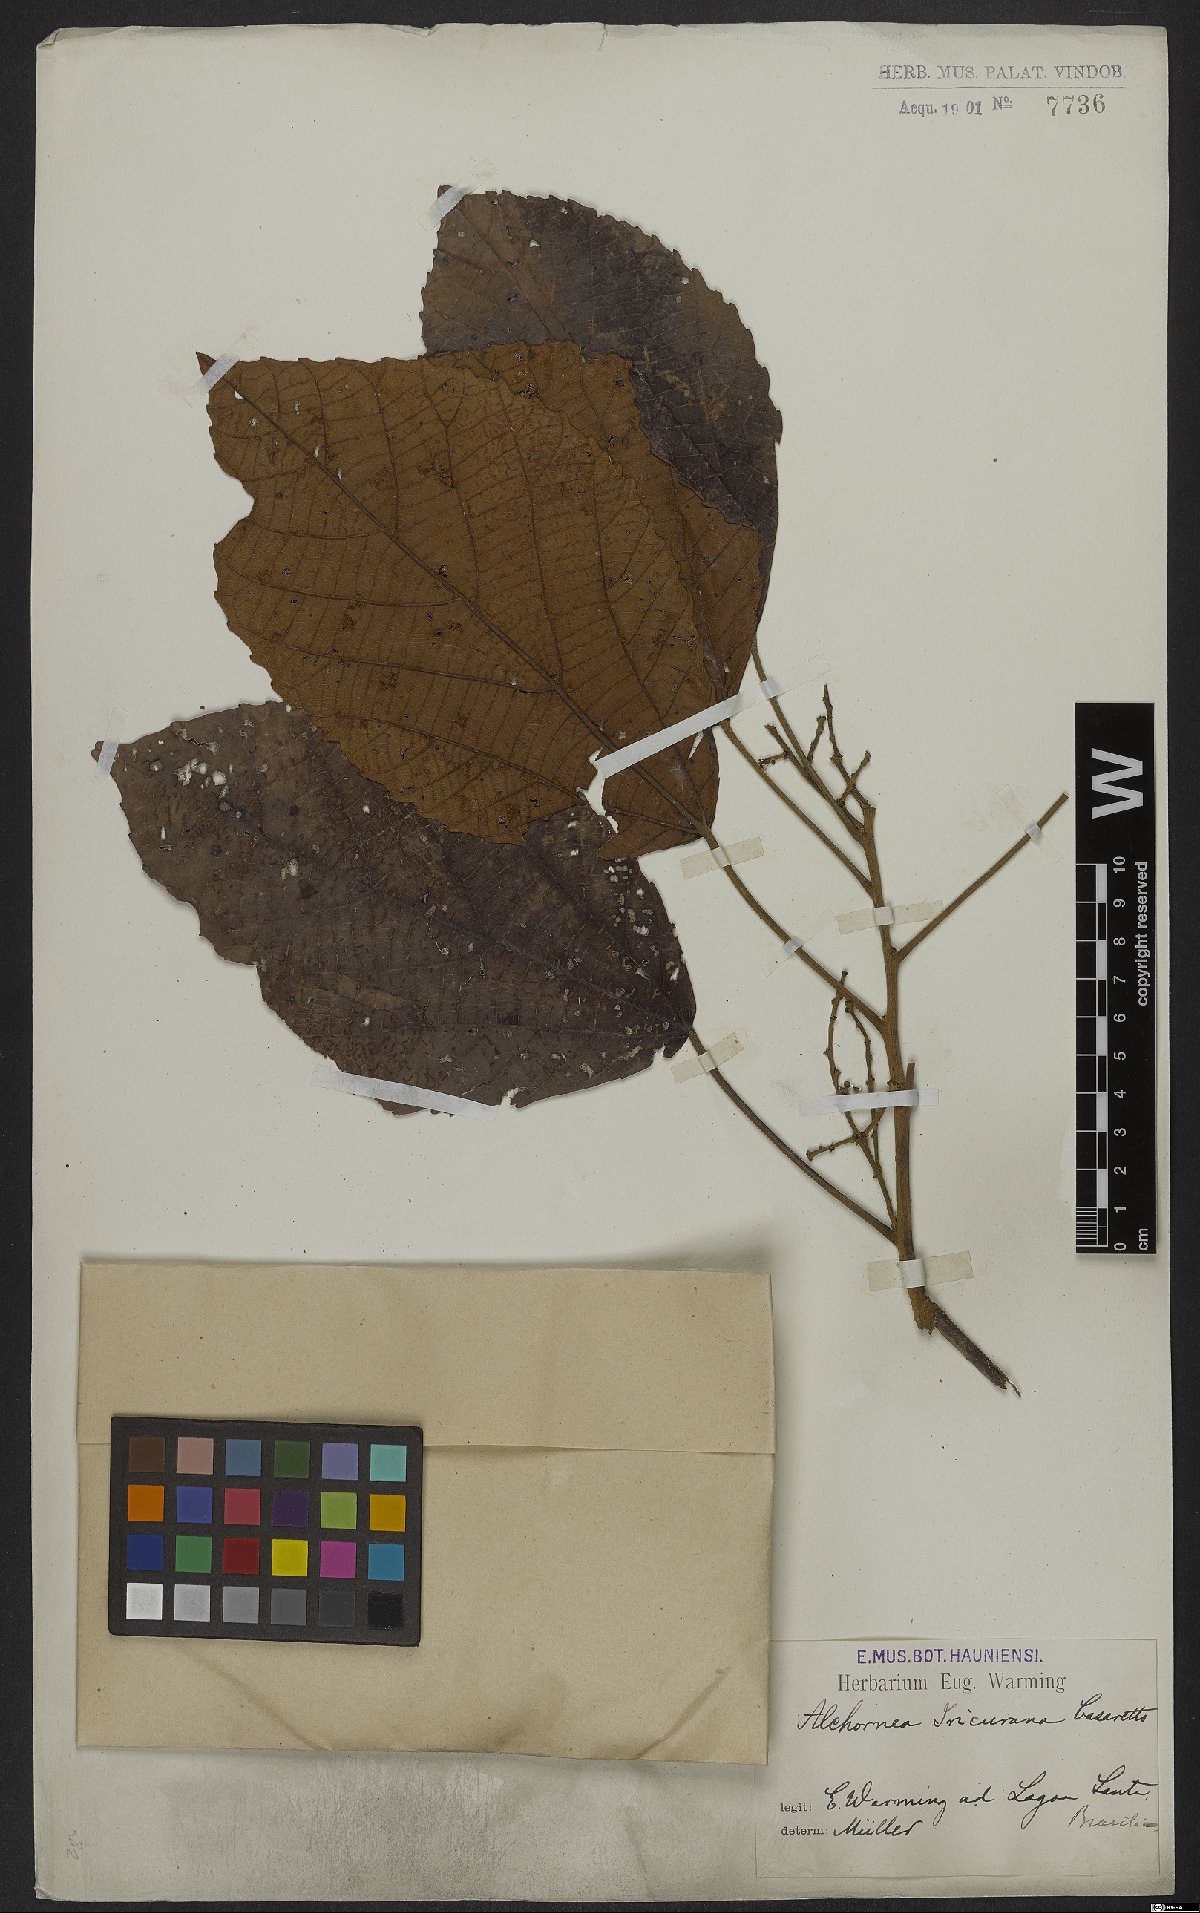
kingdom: Plantae
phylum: Tracheophyta
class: Magnoliopsida
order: Malpighiales
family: Euphorbiaceae
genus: Alchornea
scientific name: Alchornea glandulosa
